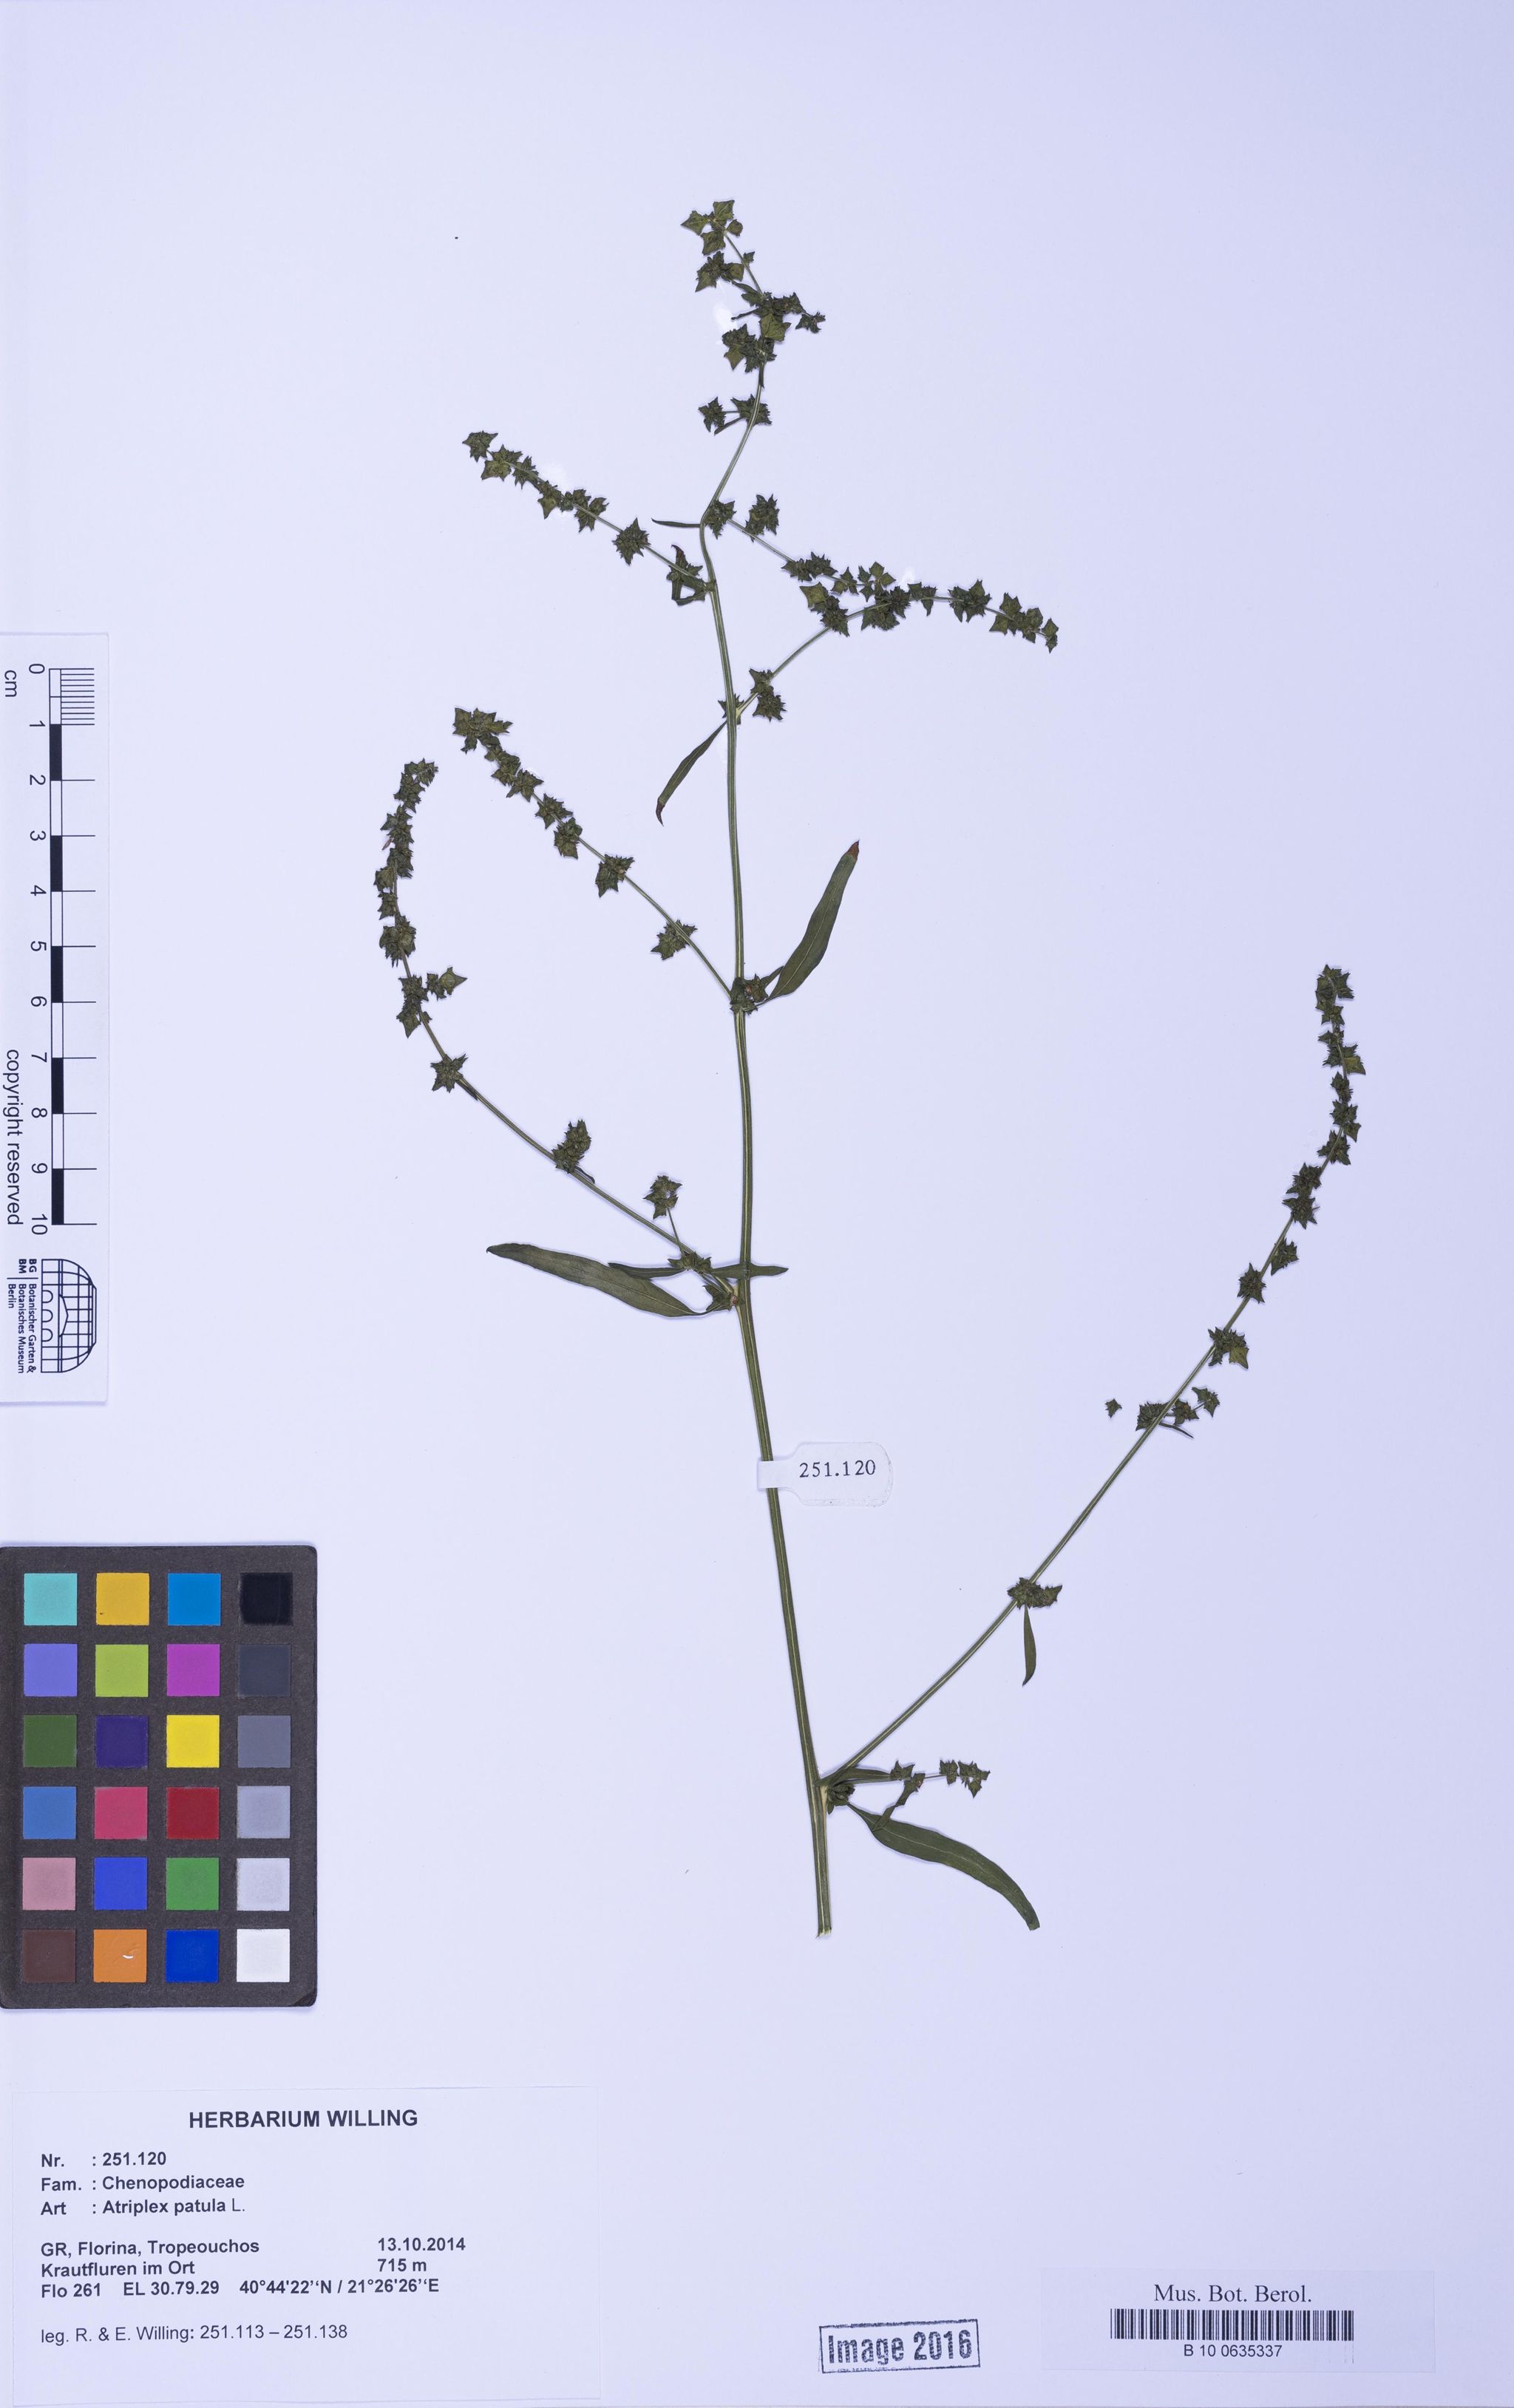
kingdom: Plantae
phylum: Tracheophyta
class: Magnoliopsida
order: Caryophyllales
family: Amaranthaceae
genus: Atriplex
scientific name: Atriplex patula
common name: Common orache
